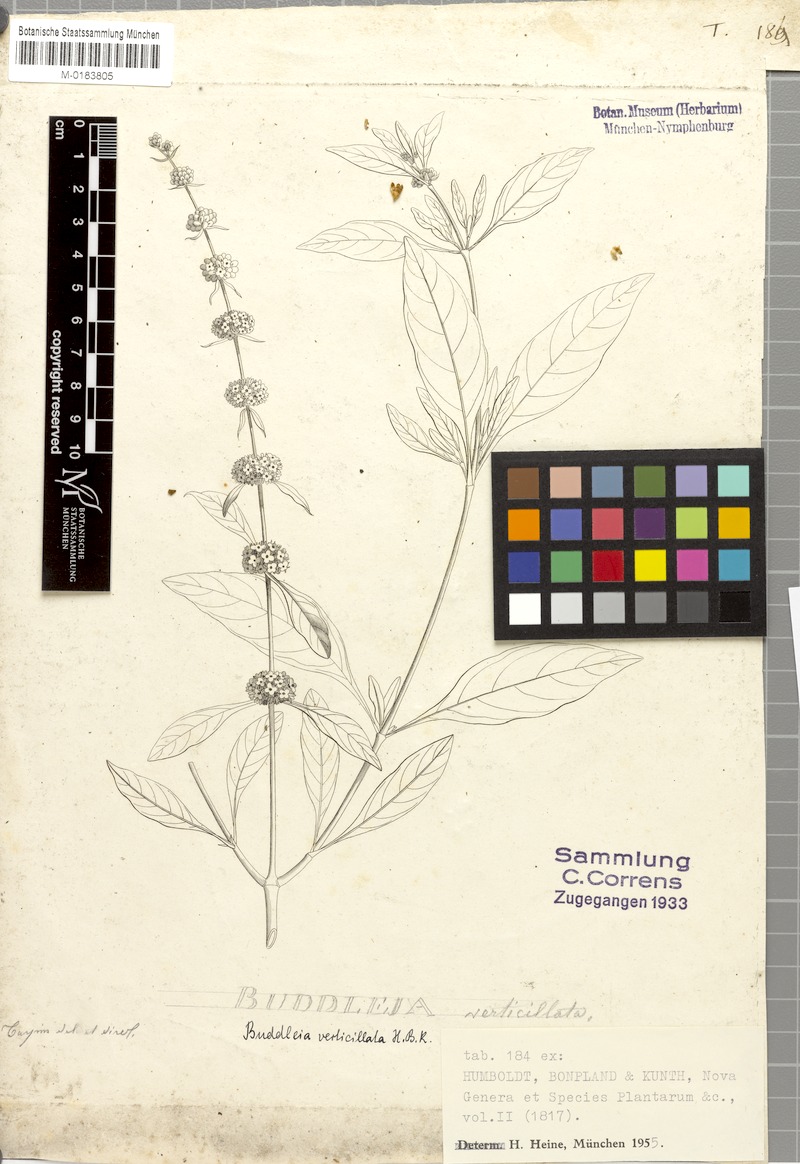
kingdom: Plantae
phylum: Tracheophyta
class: Magnoliopsida
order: Lamiales
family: Scrophulariaceae
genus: Buddleja
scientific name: Buddleja sessiliflora
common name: Rio grande butterfly-bush
